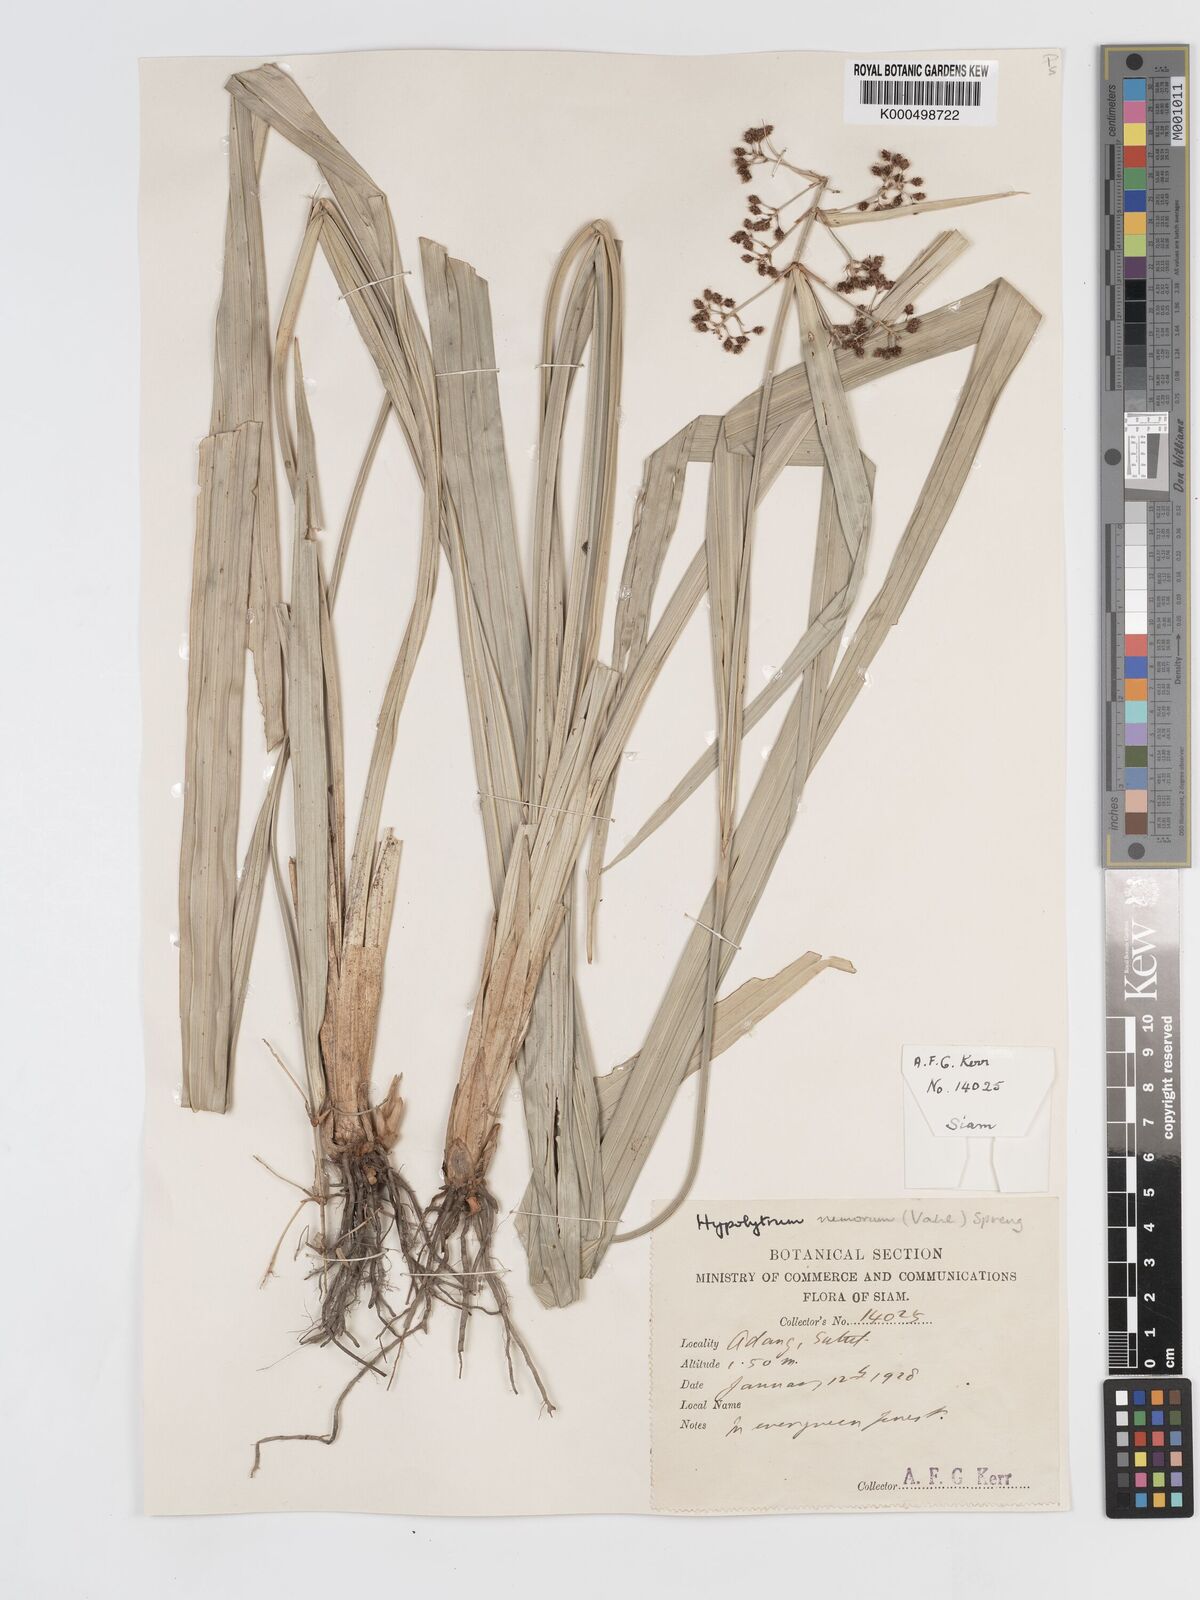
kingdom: Plantae
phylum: Tracheophyta
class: Liliopsida
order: Poales
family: Cyperaceae
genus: Hypolytrum
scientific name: Hypolytrum nemorum
